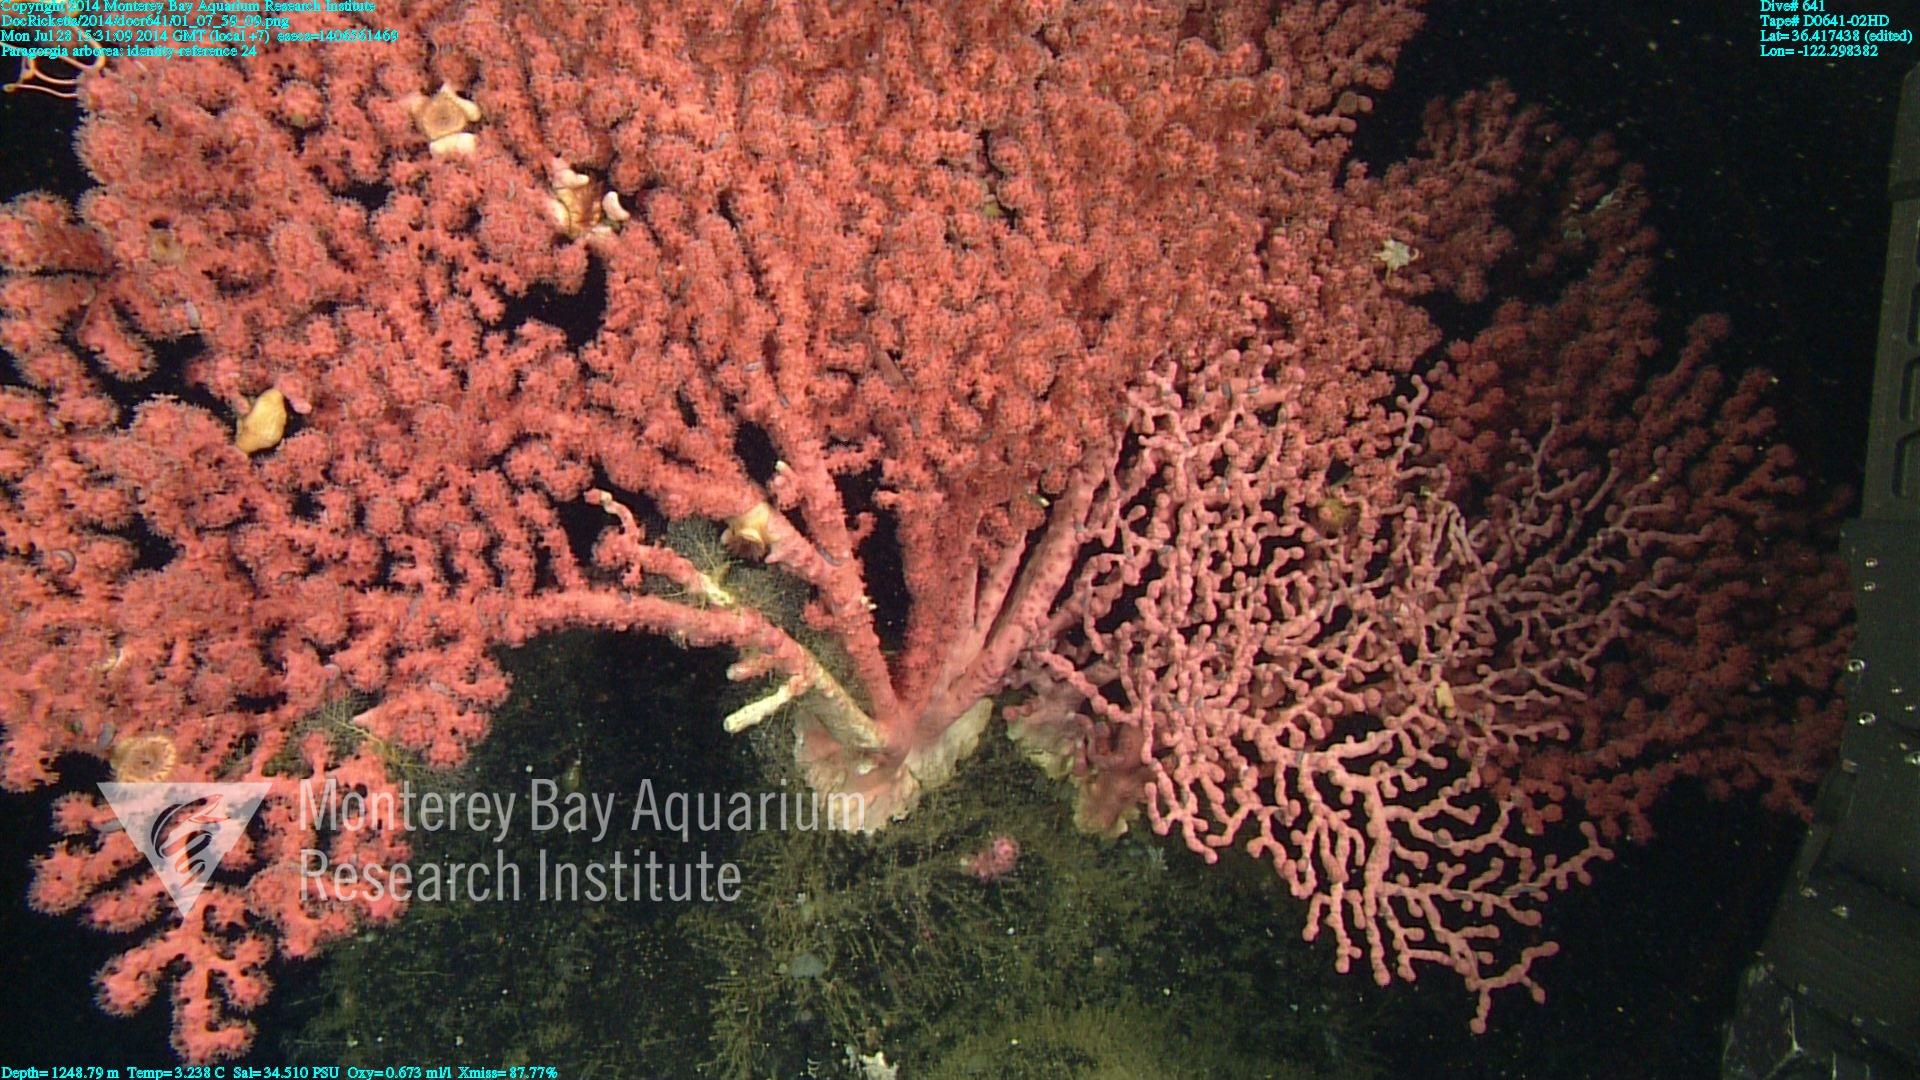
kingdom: Animalia
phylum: Cnidaria
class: Anthozoa
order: Scleralcyonacea
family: Coralliidae
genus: Paragorgia
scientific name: Paragorgia arborea
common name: Bubble gum coral
